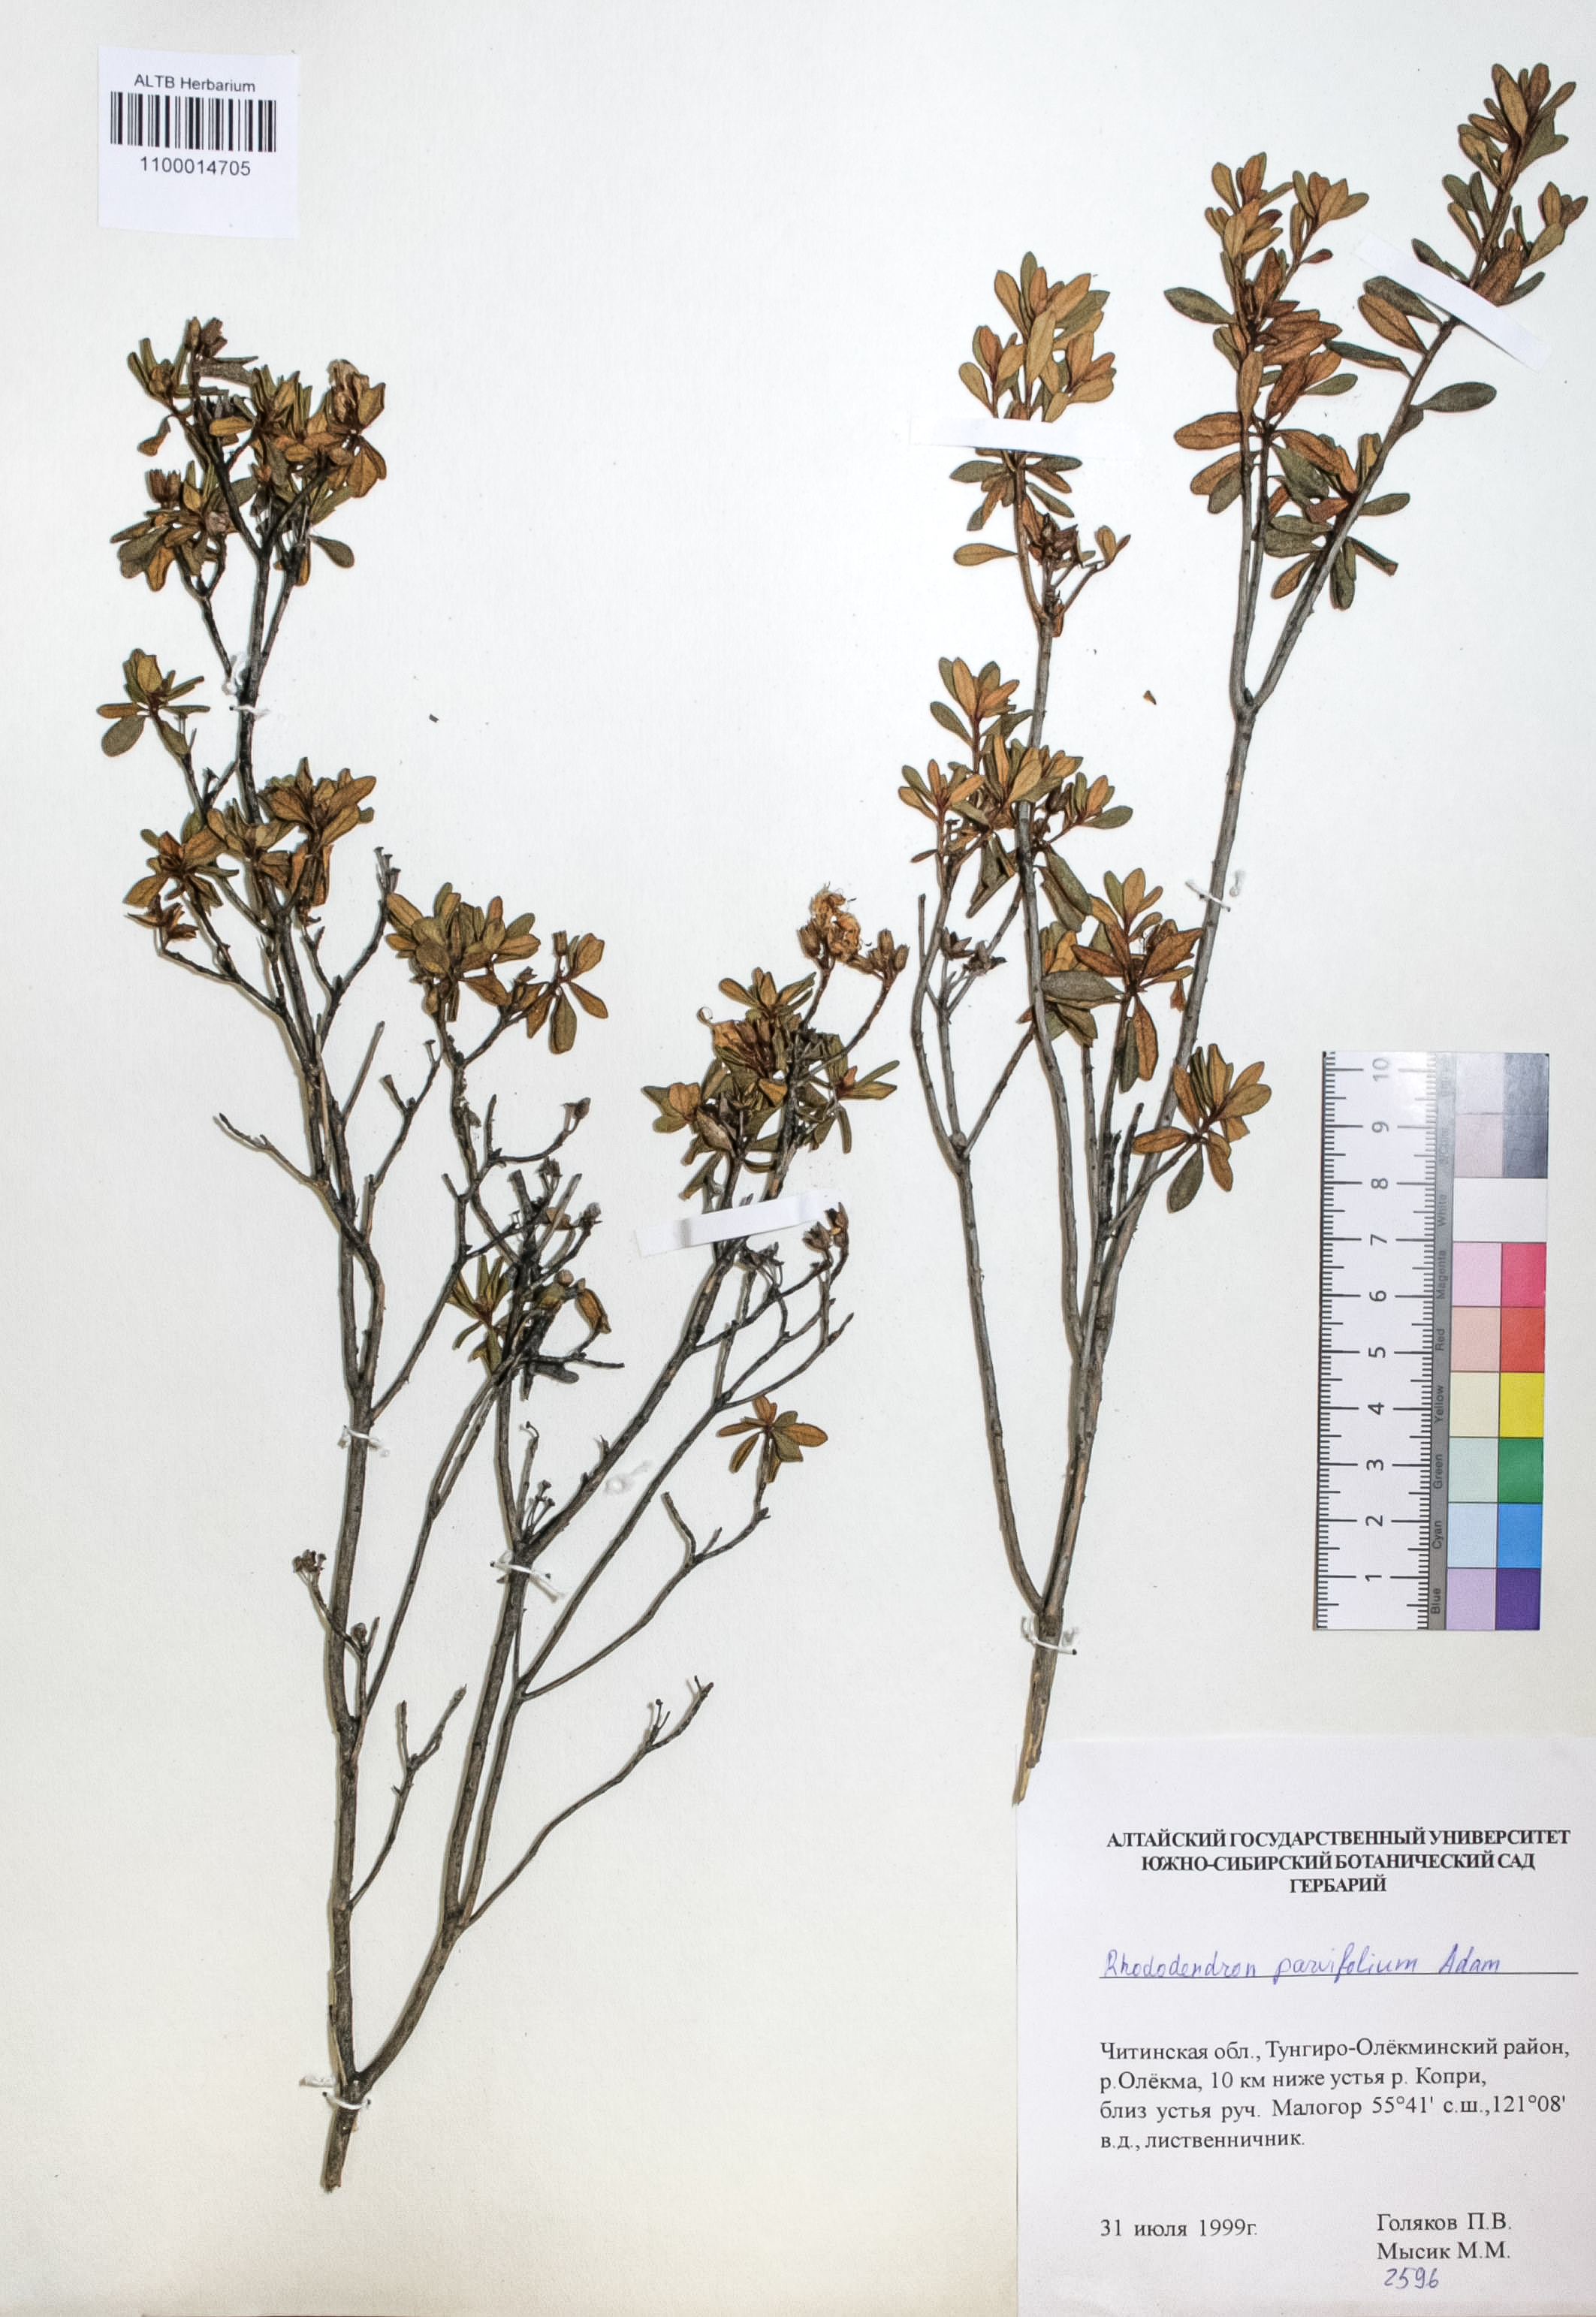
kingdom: Plantae
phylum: Tracheophyta
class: Magnoliopsida
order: Ericales
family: Ericaceae
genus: Rhododendron
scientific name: Rhododendron parvifolium
